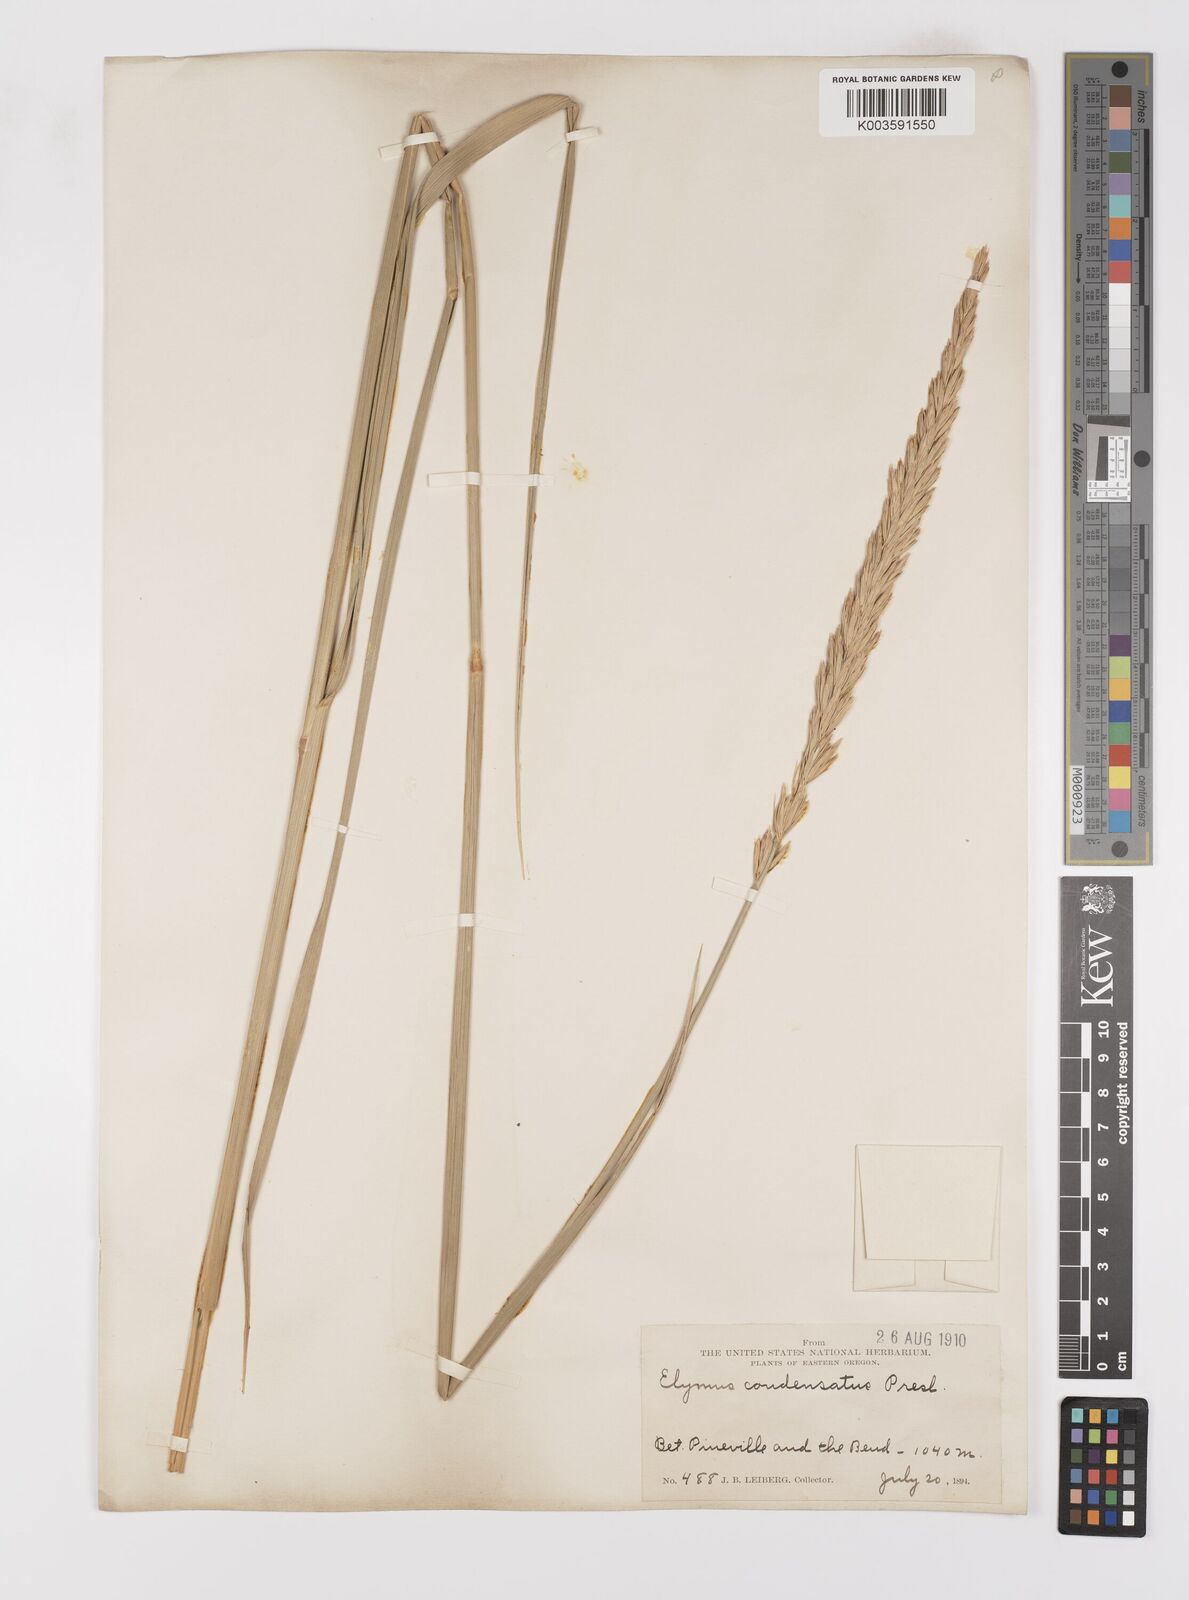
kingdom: Plantae
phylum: Tracheophyta
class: Liliopsida
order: Poales
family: Poaceae
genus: Leymus
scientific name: Leymus condensatus
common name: Giant wild rye
